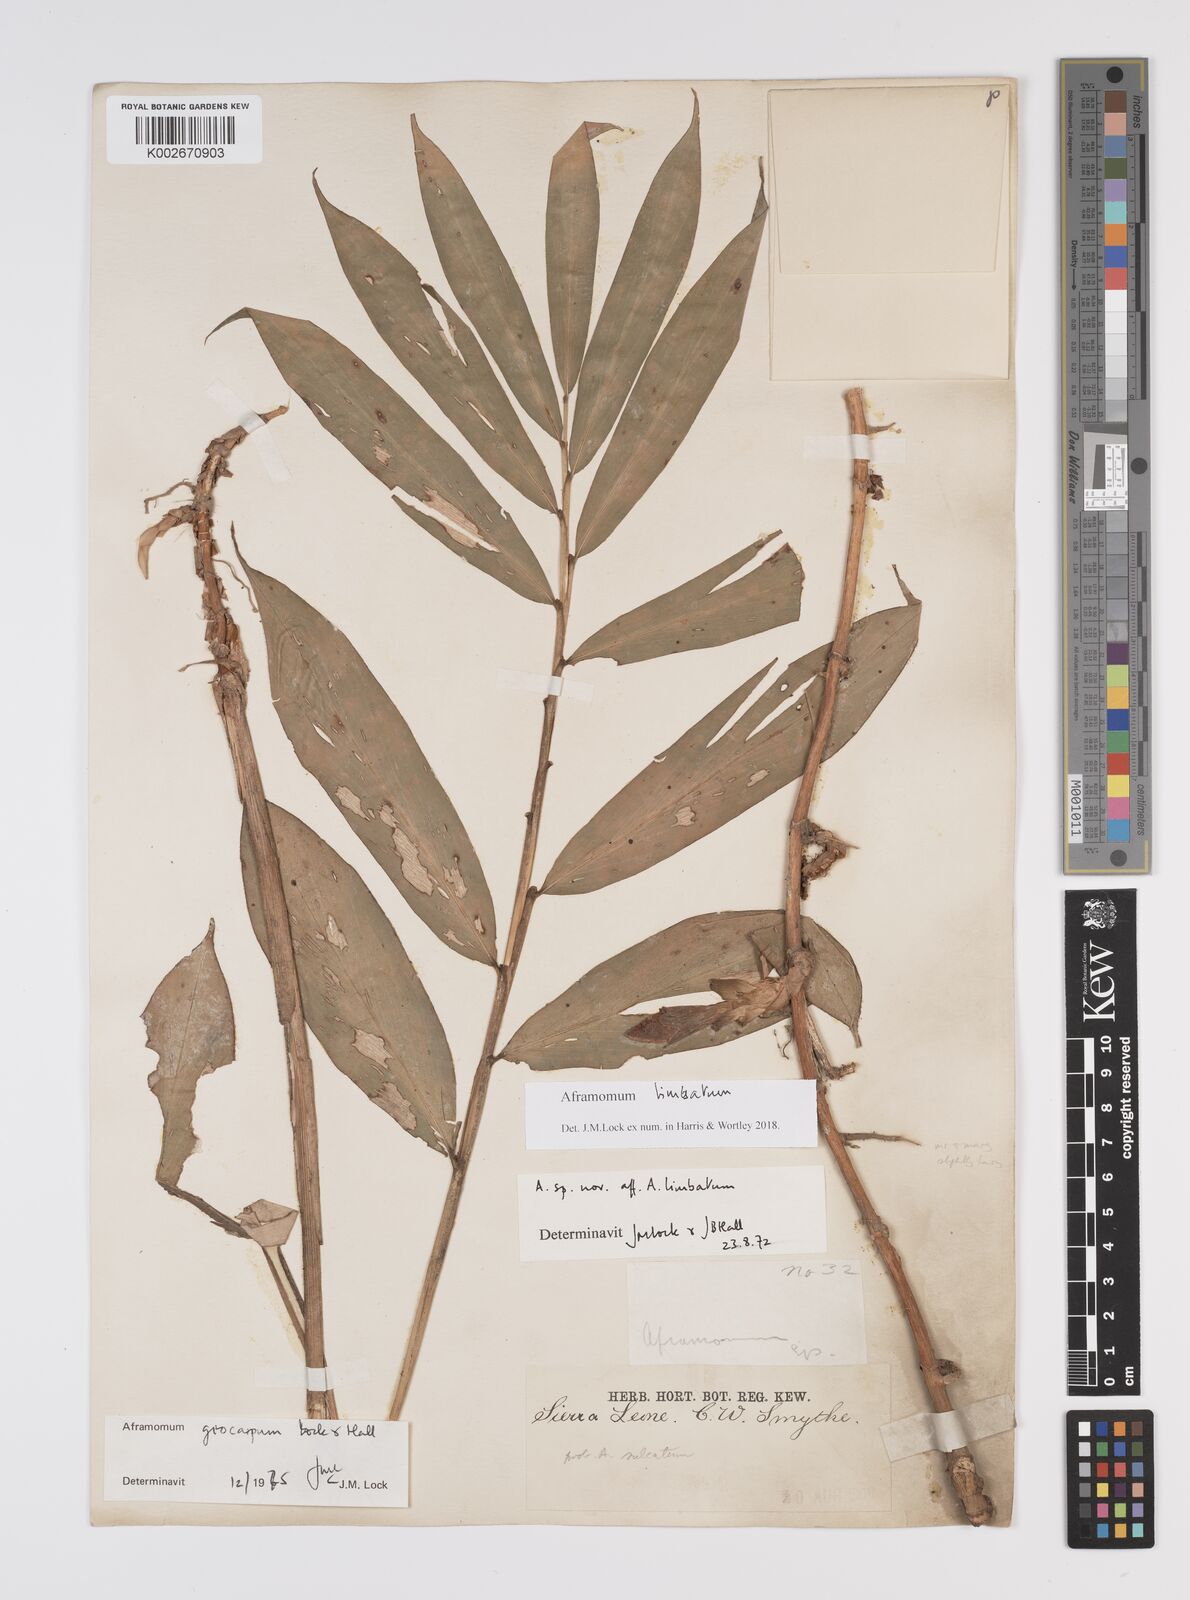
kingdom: Plantae
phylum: Tracheophyta
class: Liliopsida
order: Zingiberales
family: Zingiberaceae
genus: Aframomum
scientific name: Aframomum limbatum
